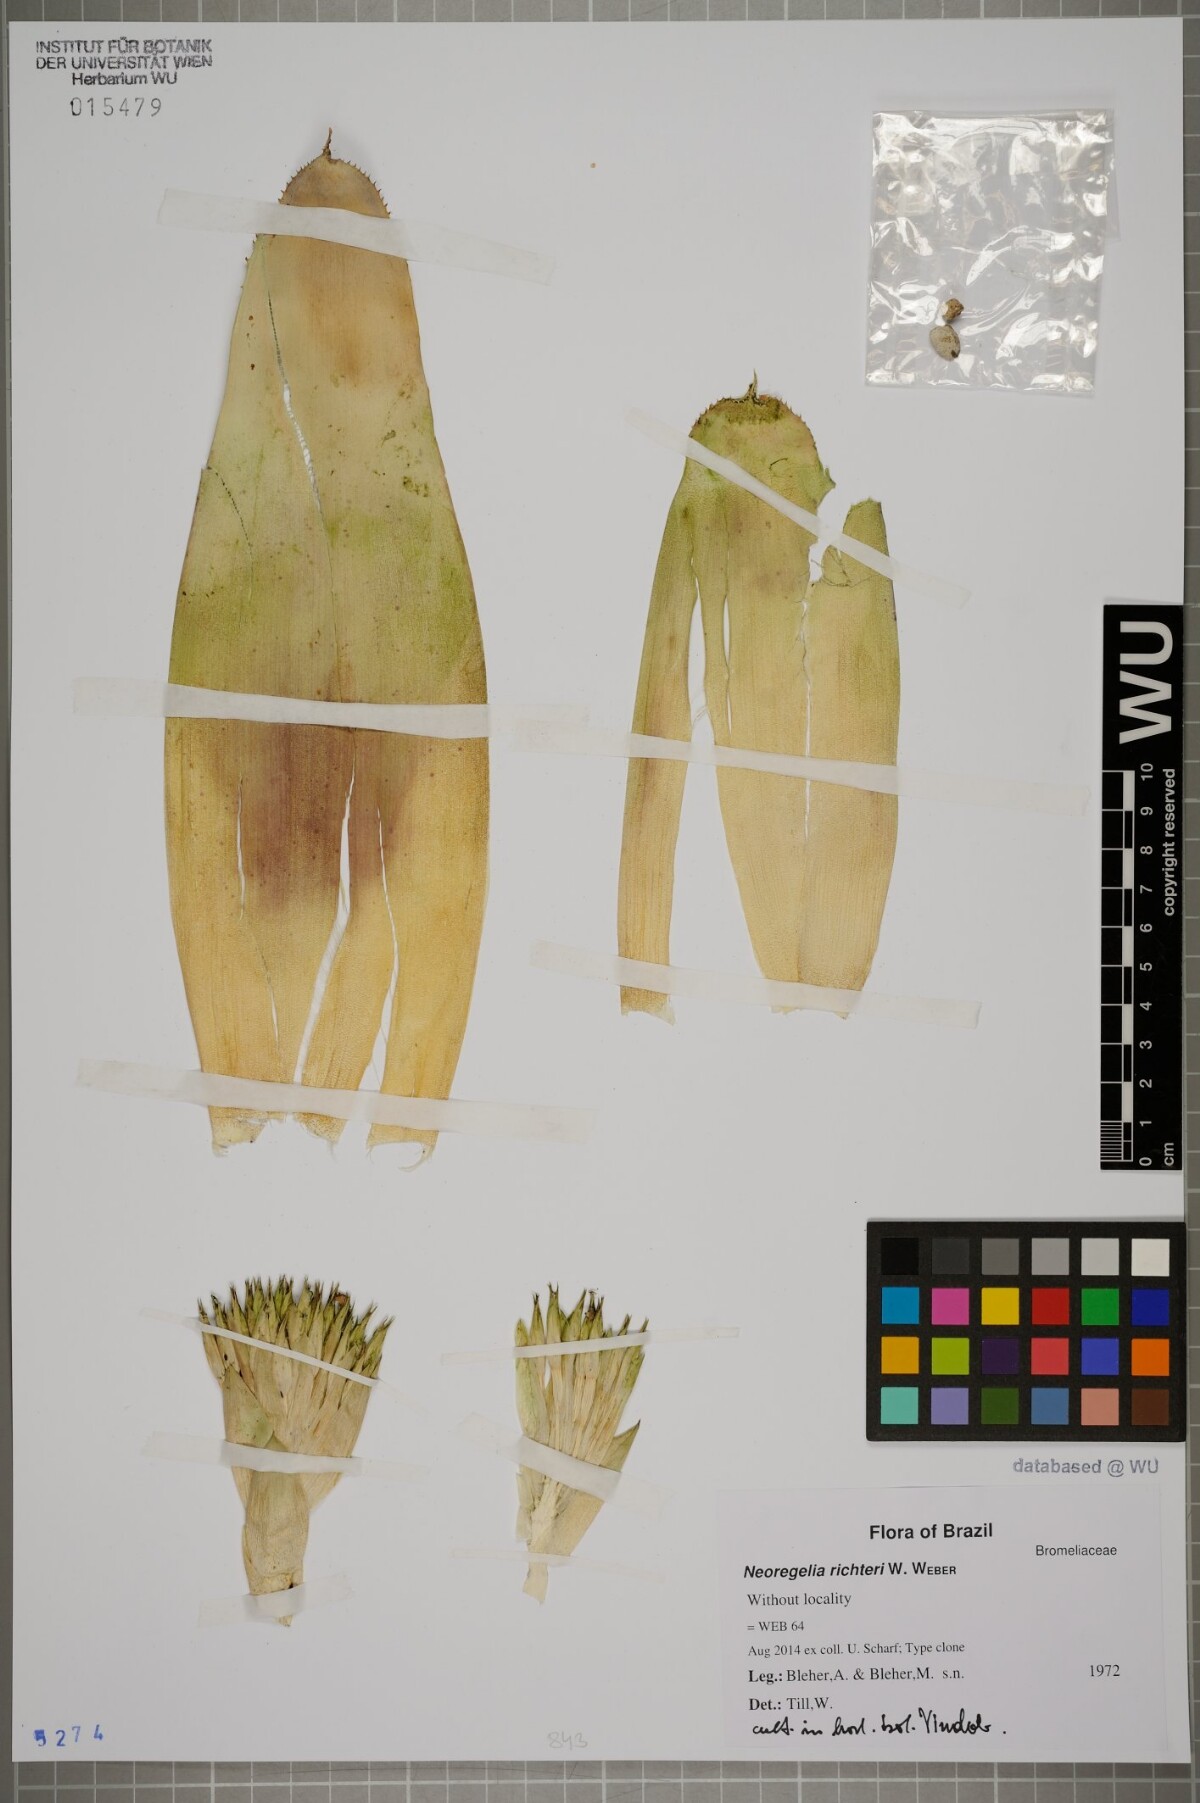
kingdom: Plantae
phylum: Tracheophyta
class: Liliopsida
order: Poales
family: Bromeliaceae
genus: Neoregelia
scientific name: Neoregelia richteri
